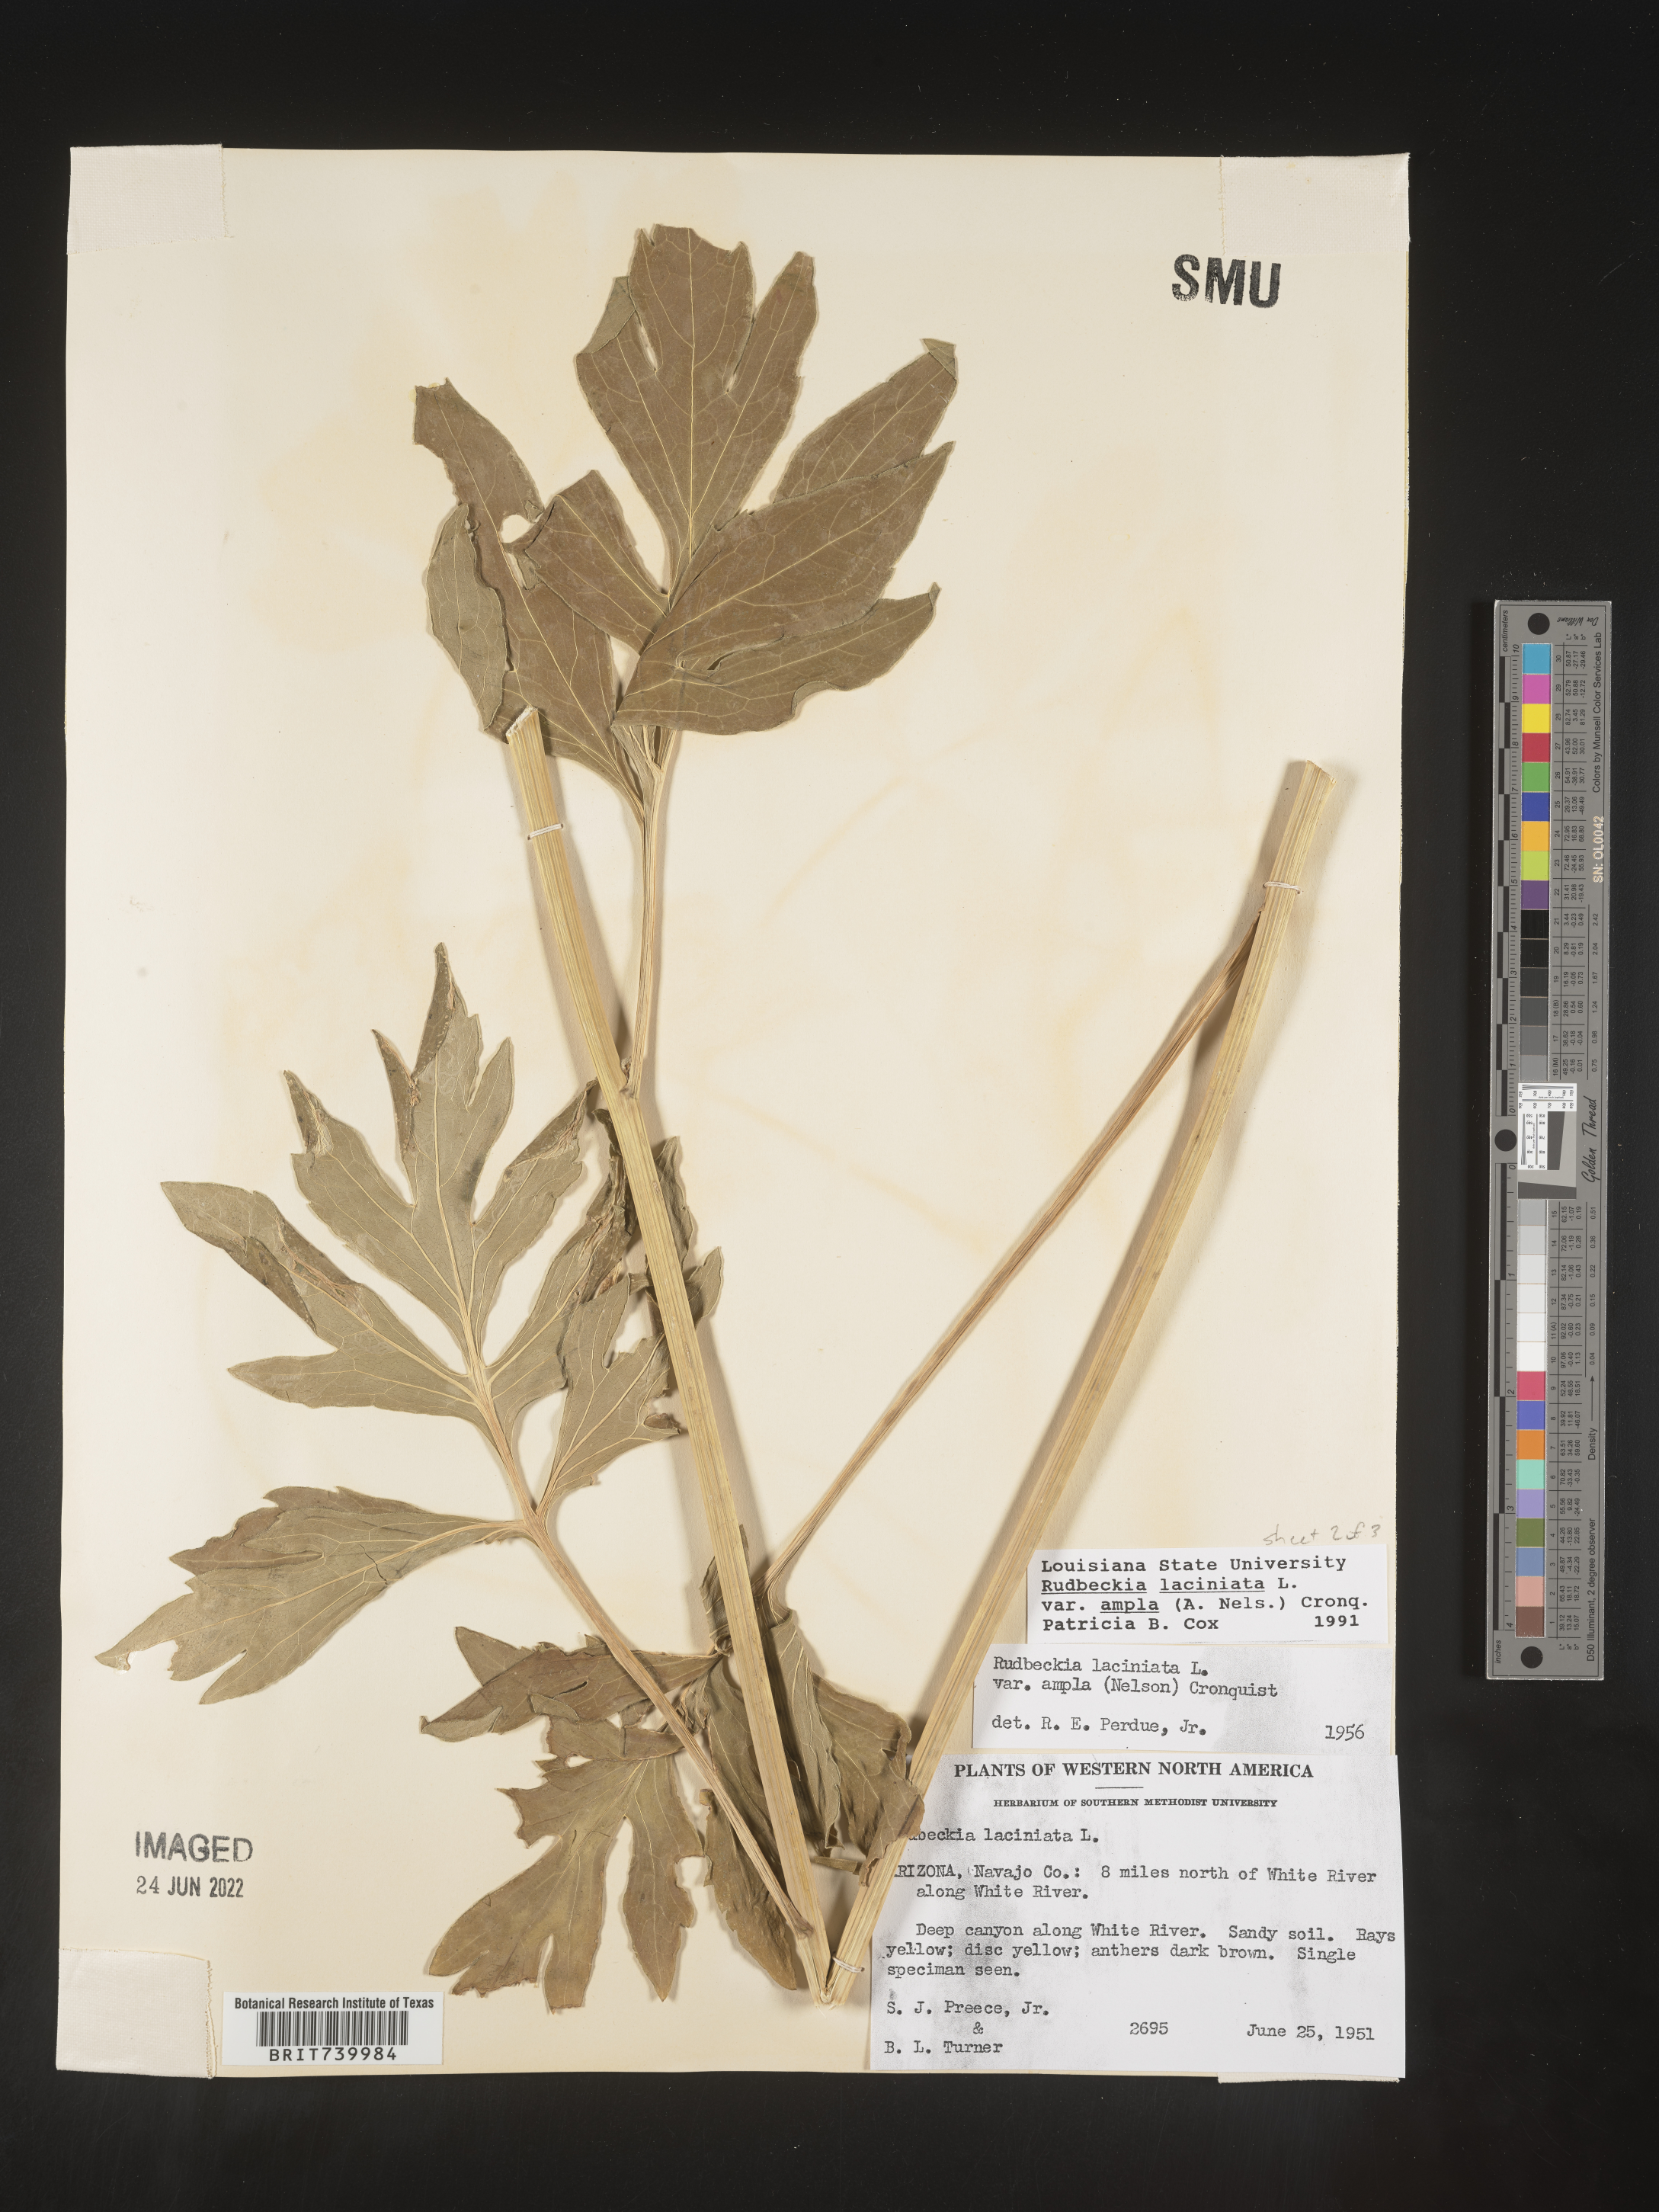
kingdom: Plantae
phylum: Tracheophyta
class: Magnoliopsida
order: Asterales
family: Asteraceae
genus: Rudbeckia
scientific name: Rudbeckia laciniata
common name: Coneflower
